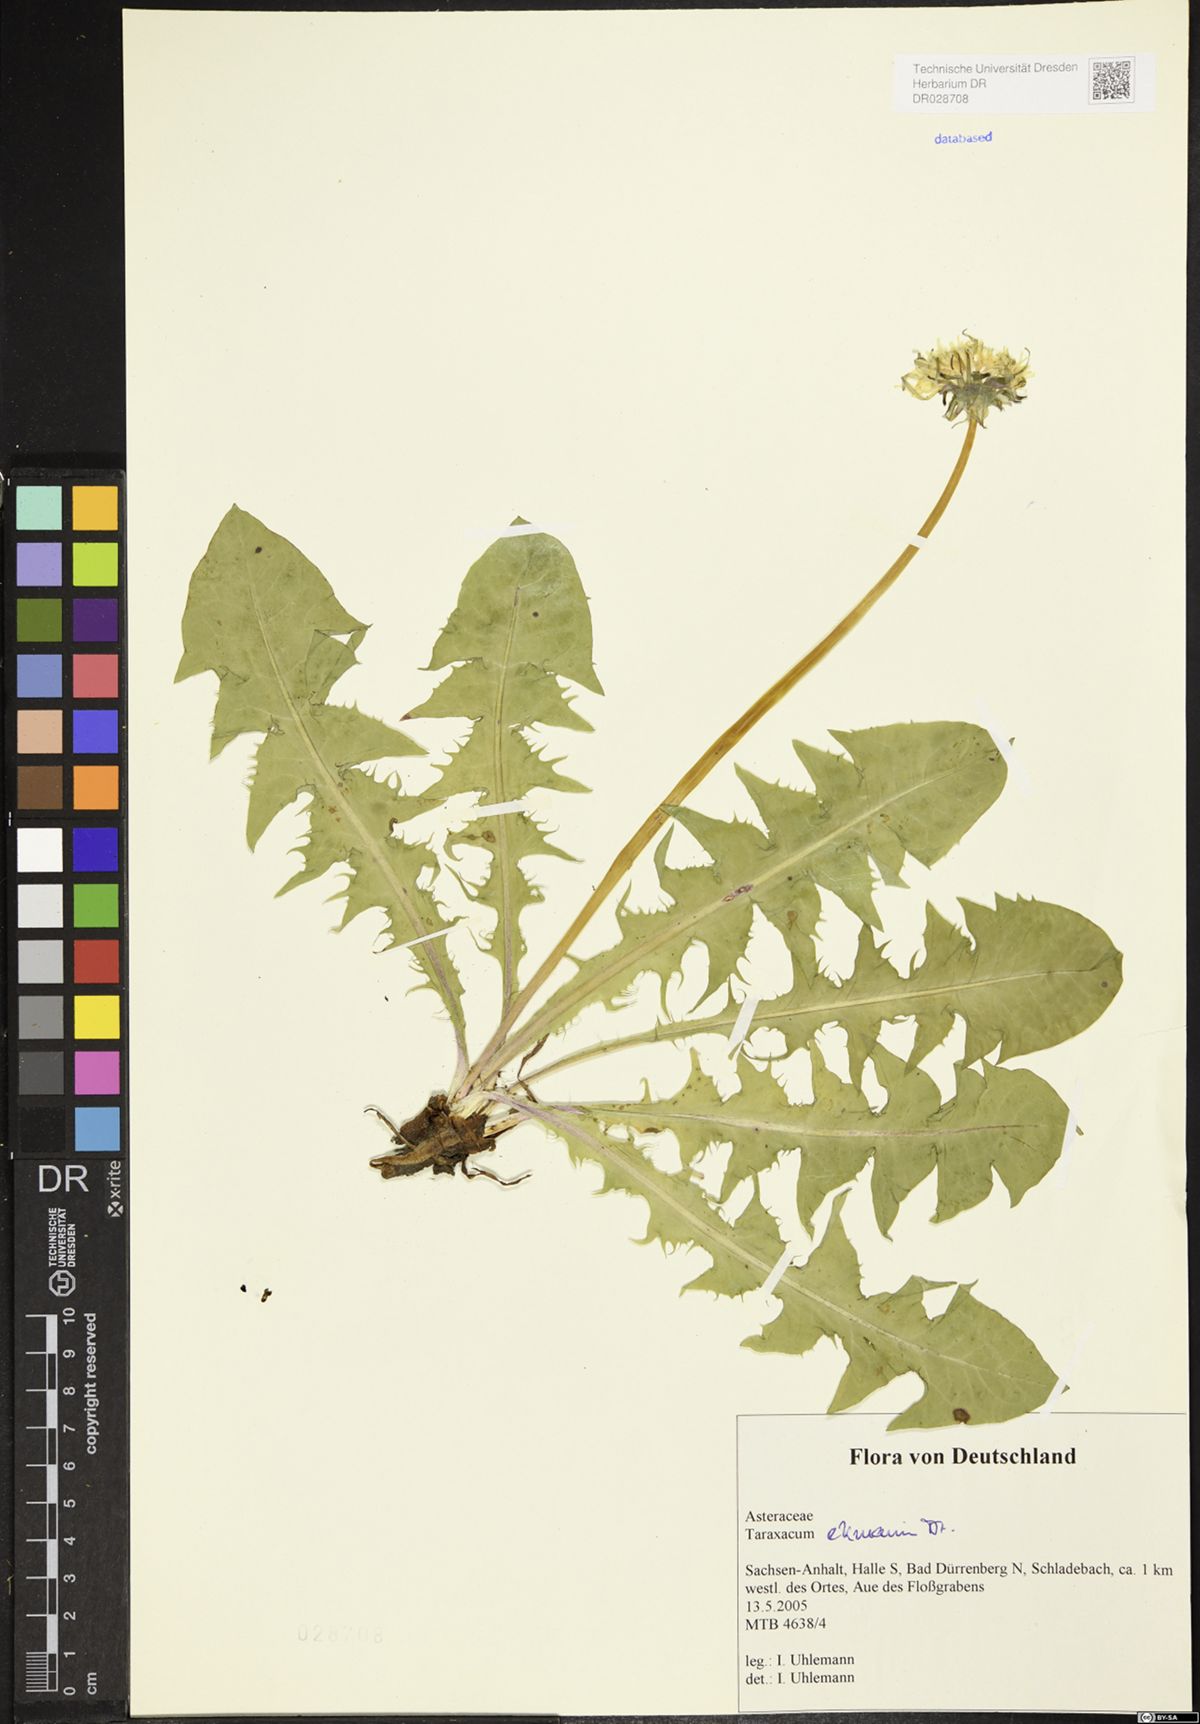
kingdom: Plantae
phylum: Tracheophyta
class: Magnoliopsida
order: Asterales
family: Asteraceae
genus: Taraxacum
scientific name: Taraxacum ekmanii
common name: Ekman's dandelion
